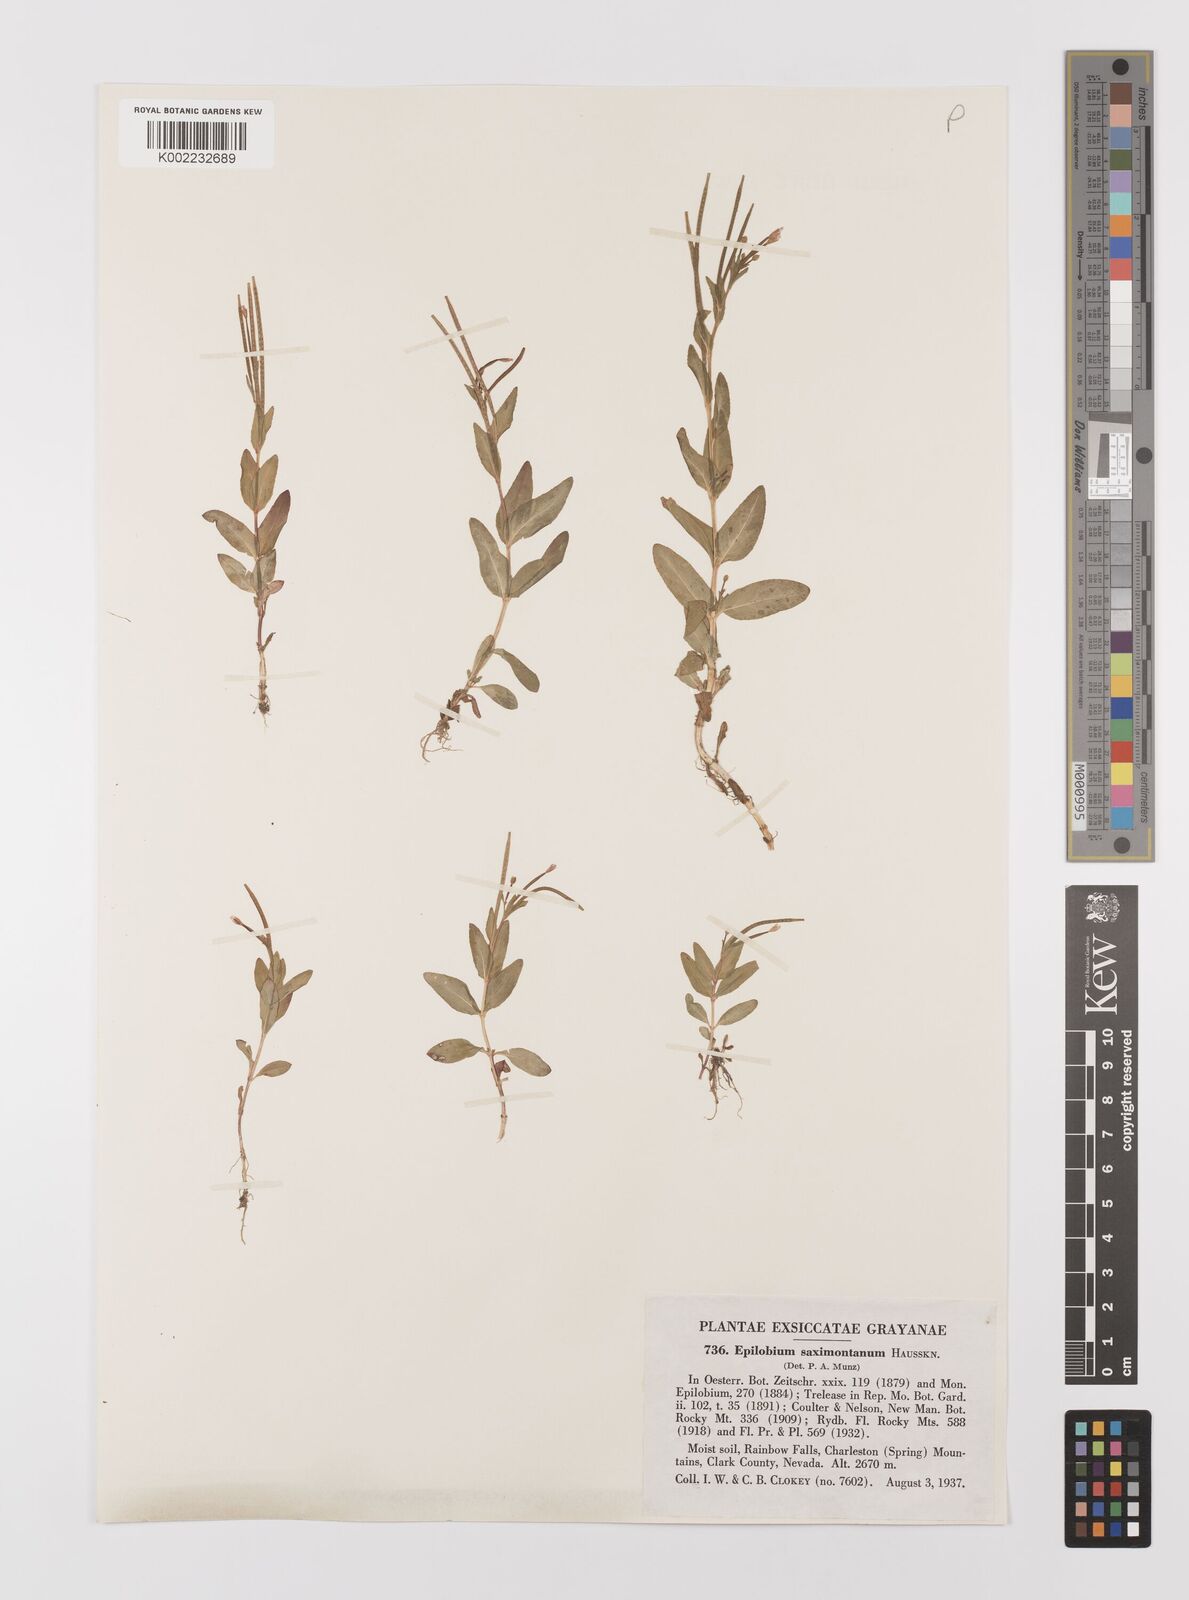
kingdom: Plantae
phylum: Tracheophyta
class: Magnoliopsida
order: Myrtales
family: Onagraceae
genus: Epilobium
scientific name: Epilobium saximontanum
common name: Rocky mountain willowherb
